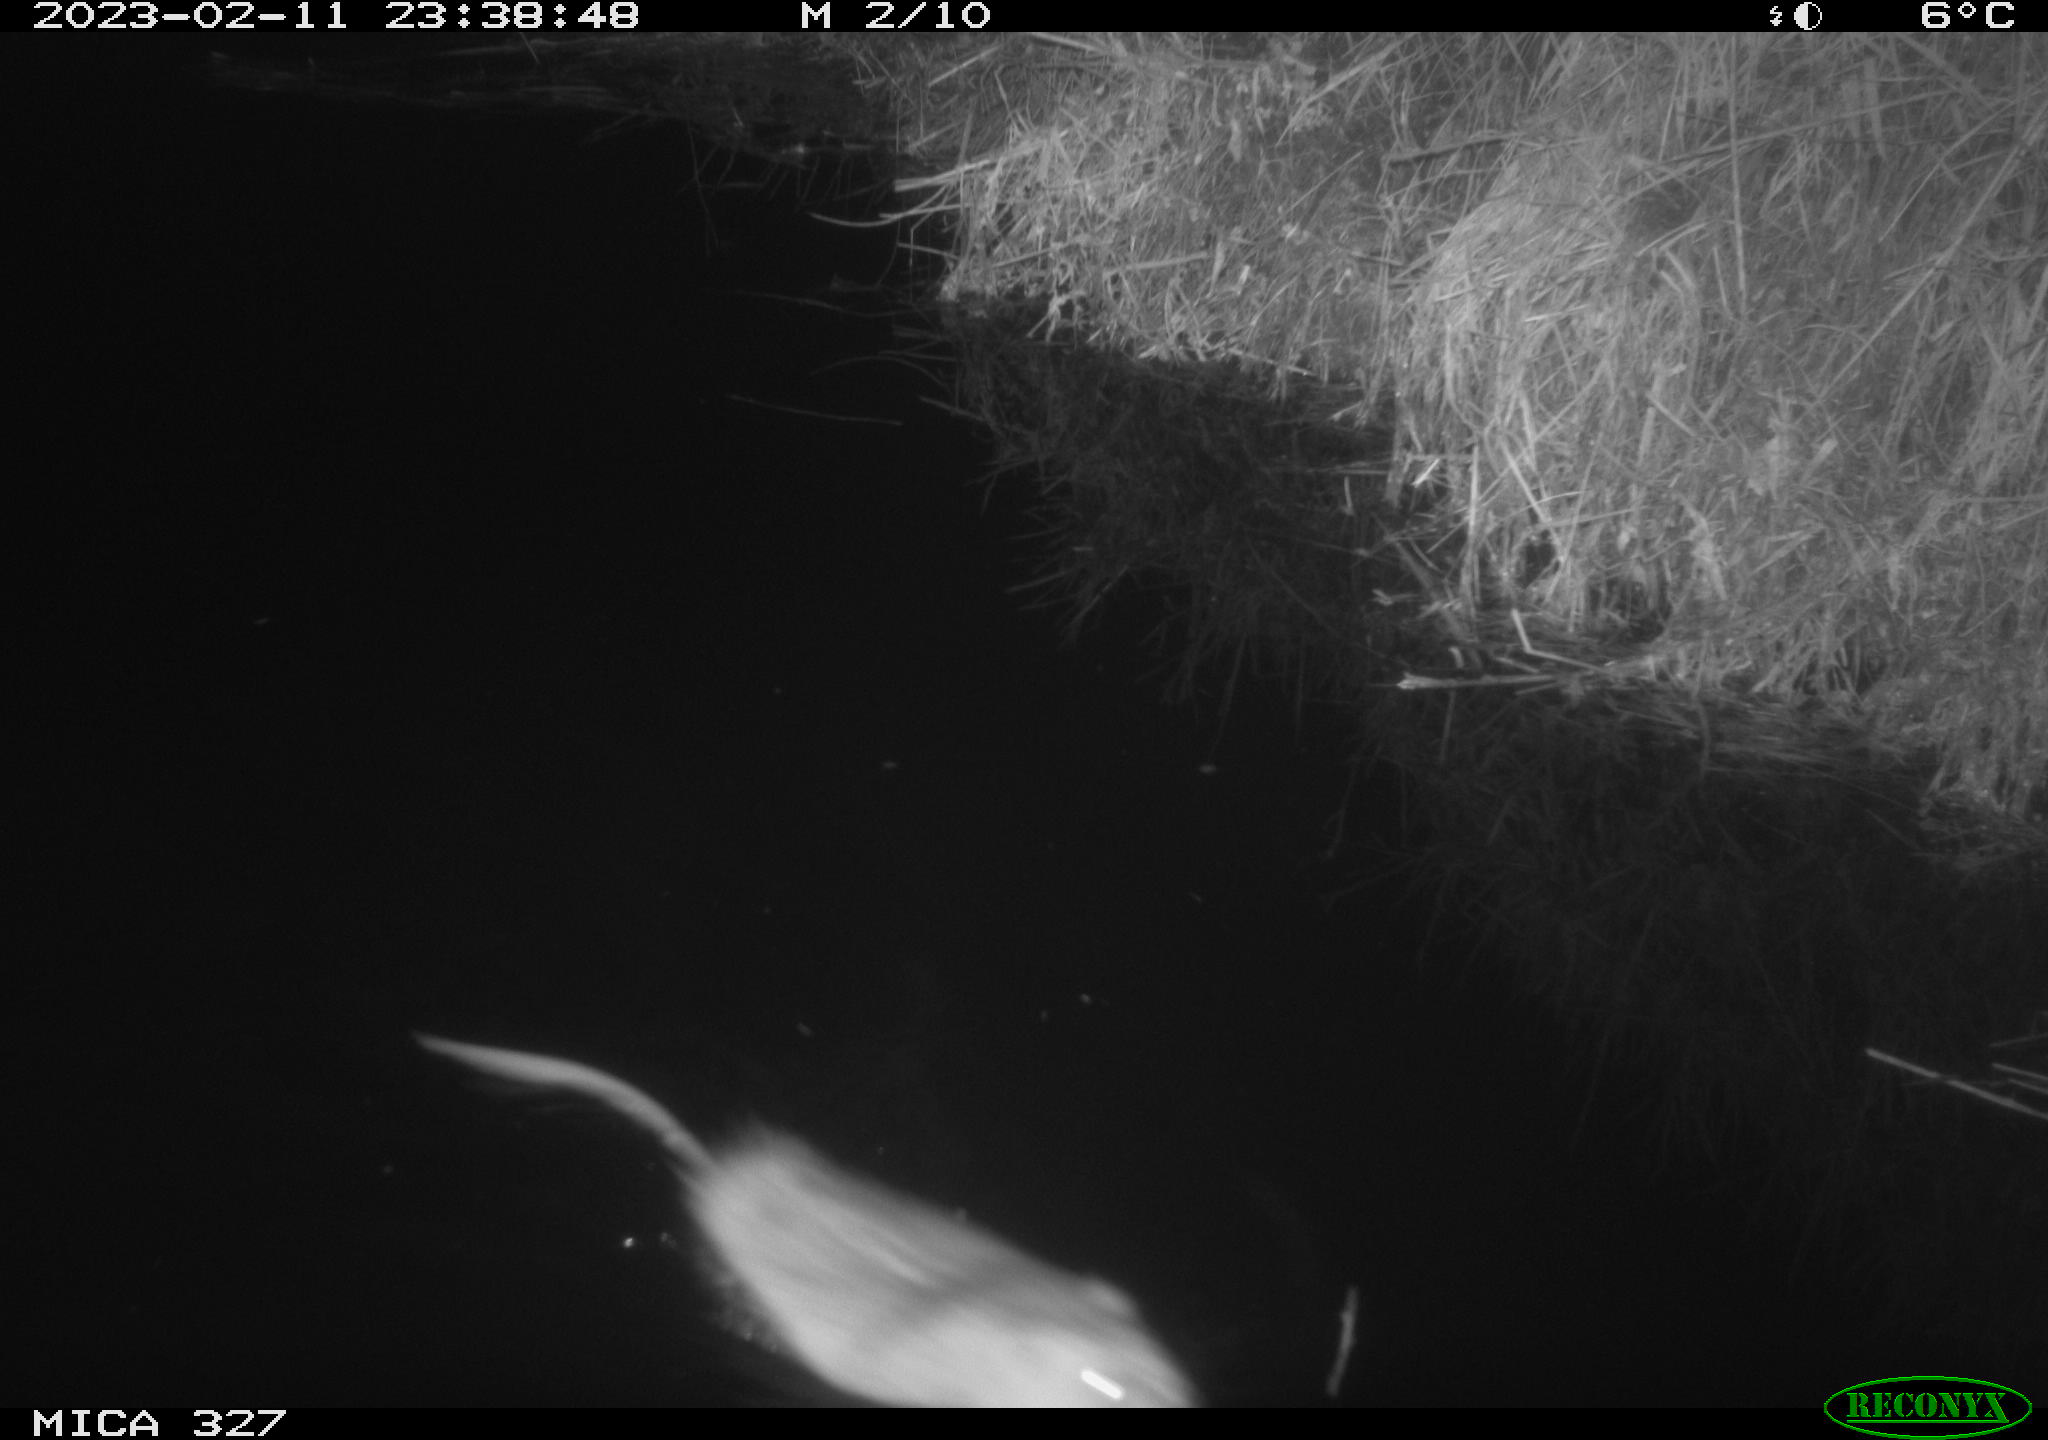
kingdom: Animalia
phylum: Chordata
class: Mammalia
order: Rodentia
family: Cricetidae
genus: Ondatra
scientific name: Ondatra zibethicus
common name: Muskrat
